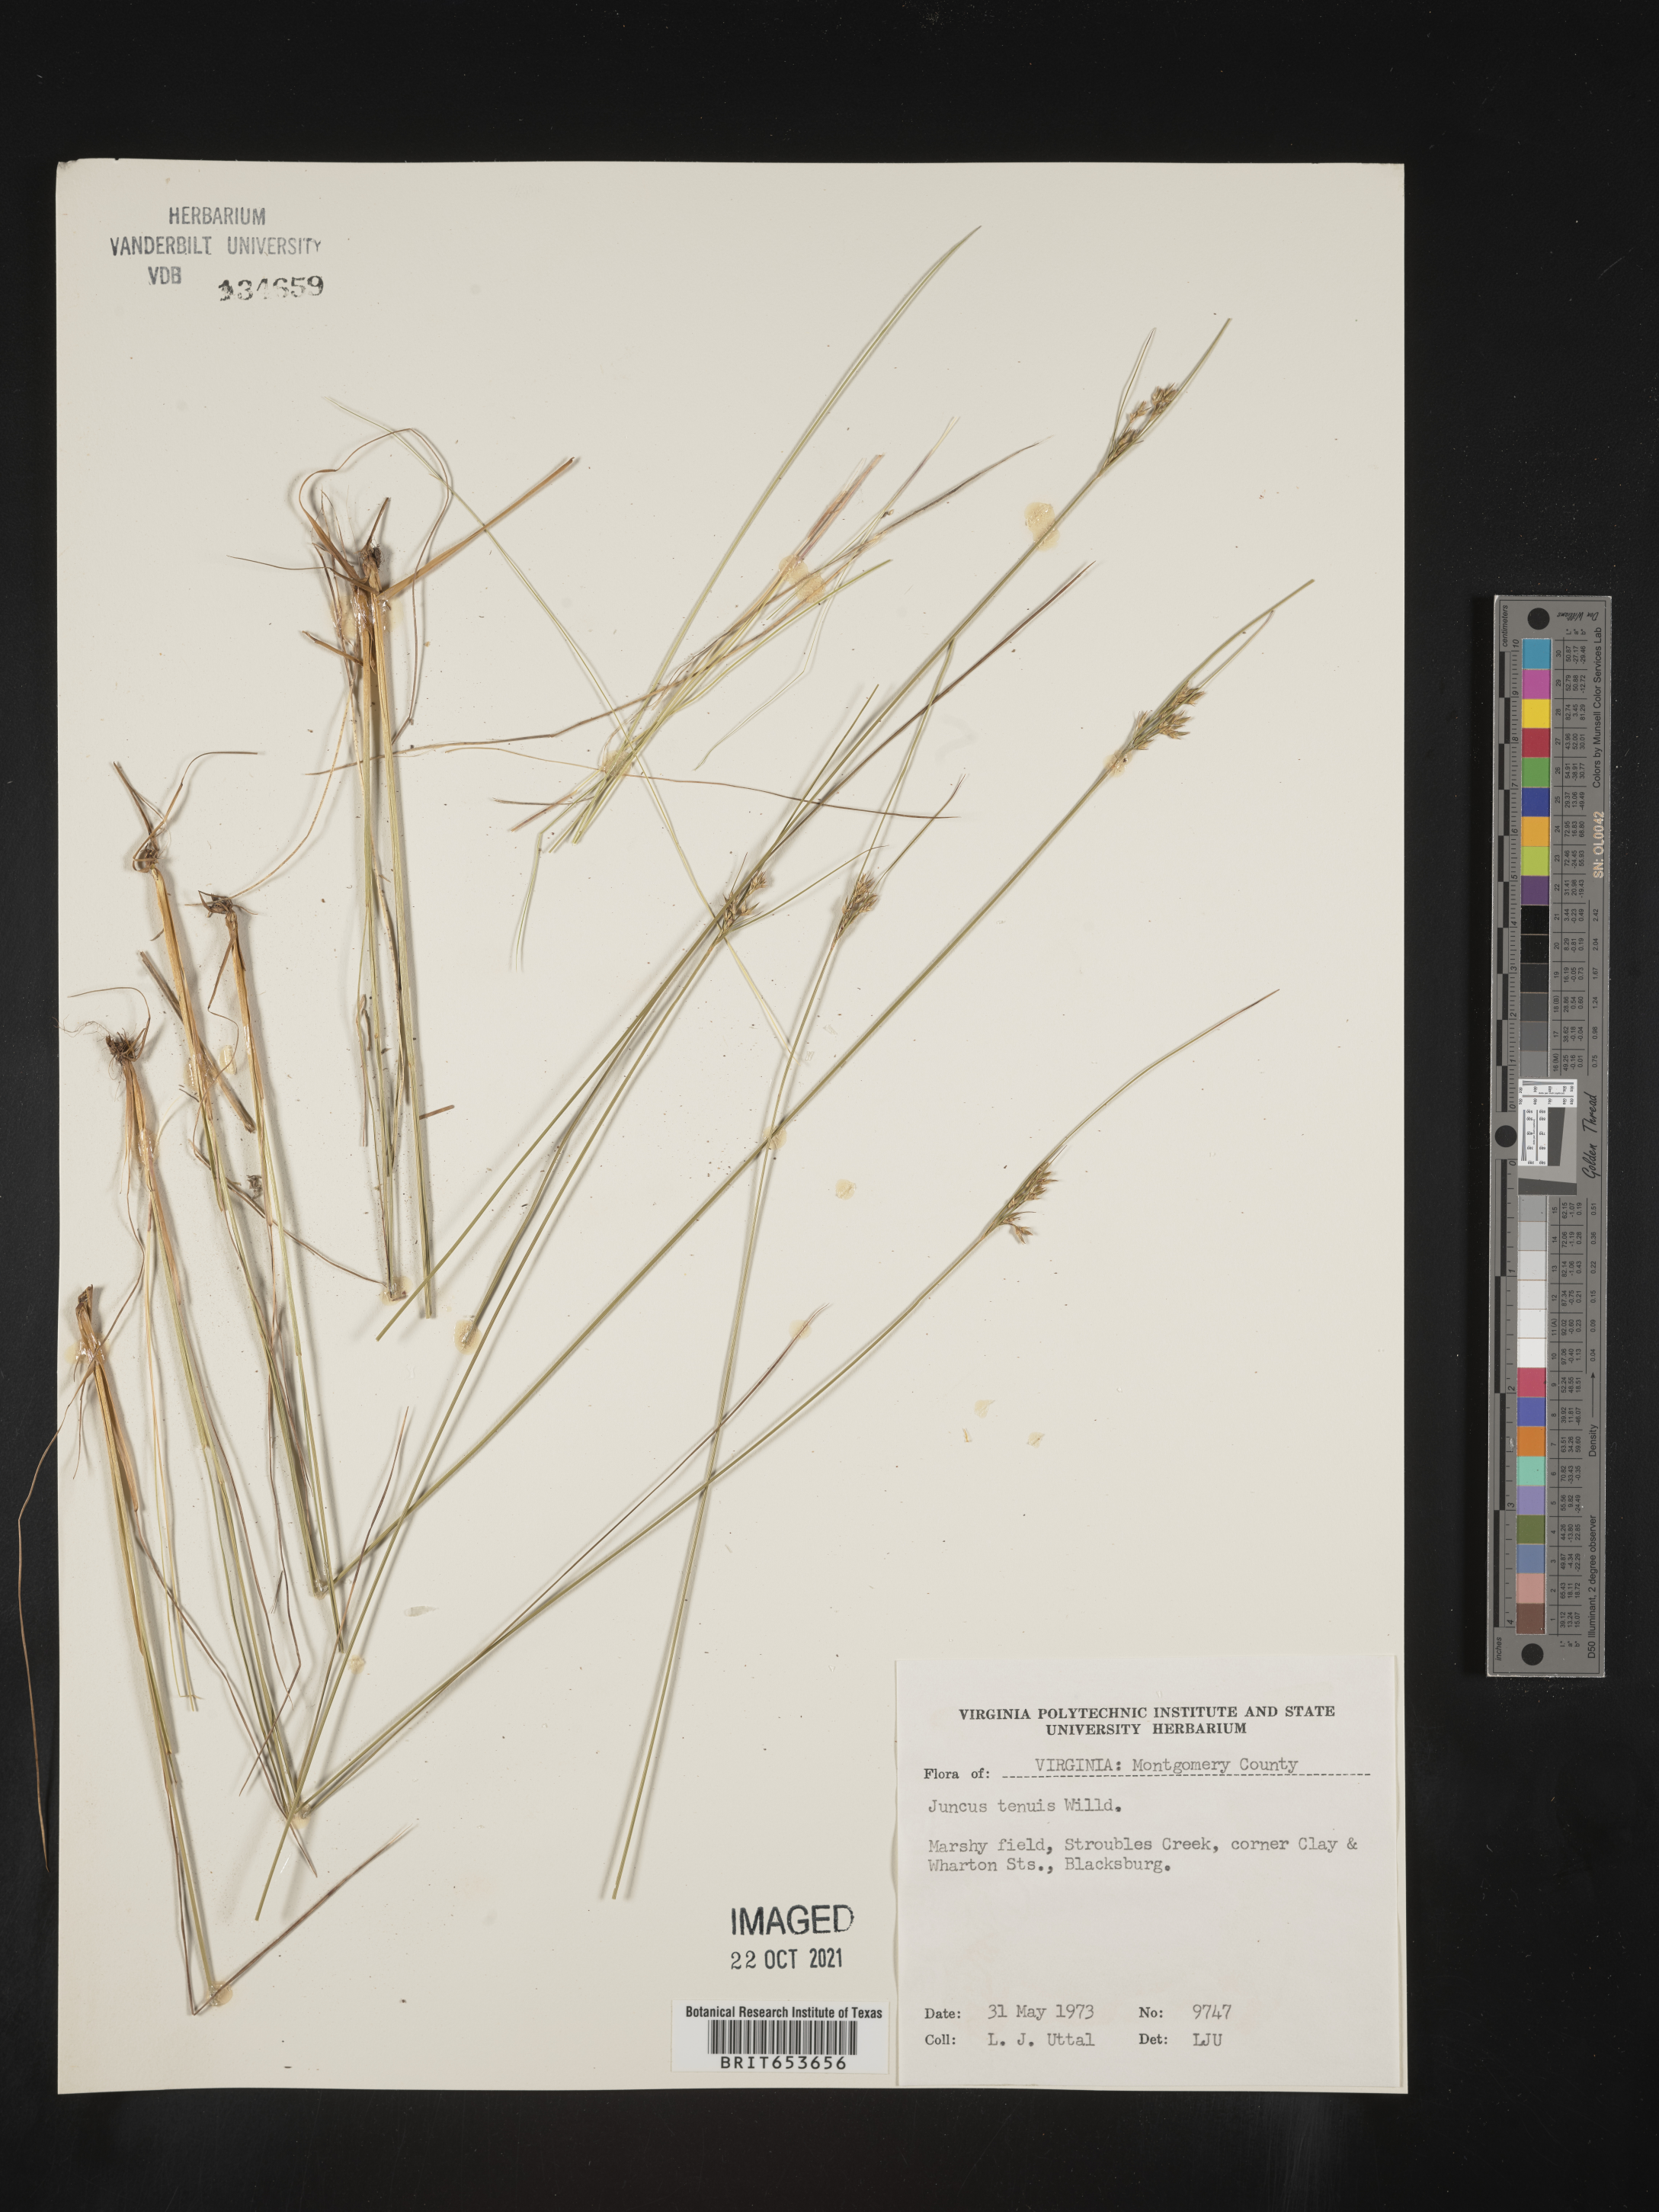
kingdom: Plantae
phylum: Tracheophyta
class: Liliopsida
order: Poales
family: Juncaceae
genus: Juncus
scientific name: Juncus tenuis
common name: Slender rush
